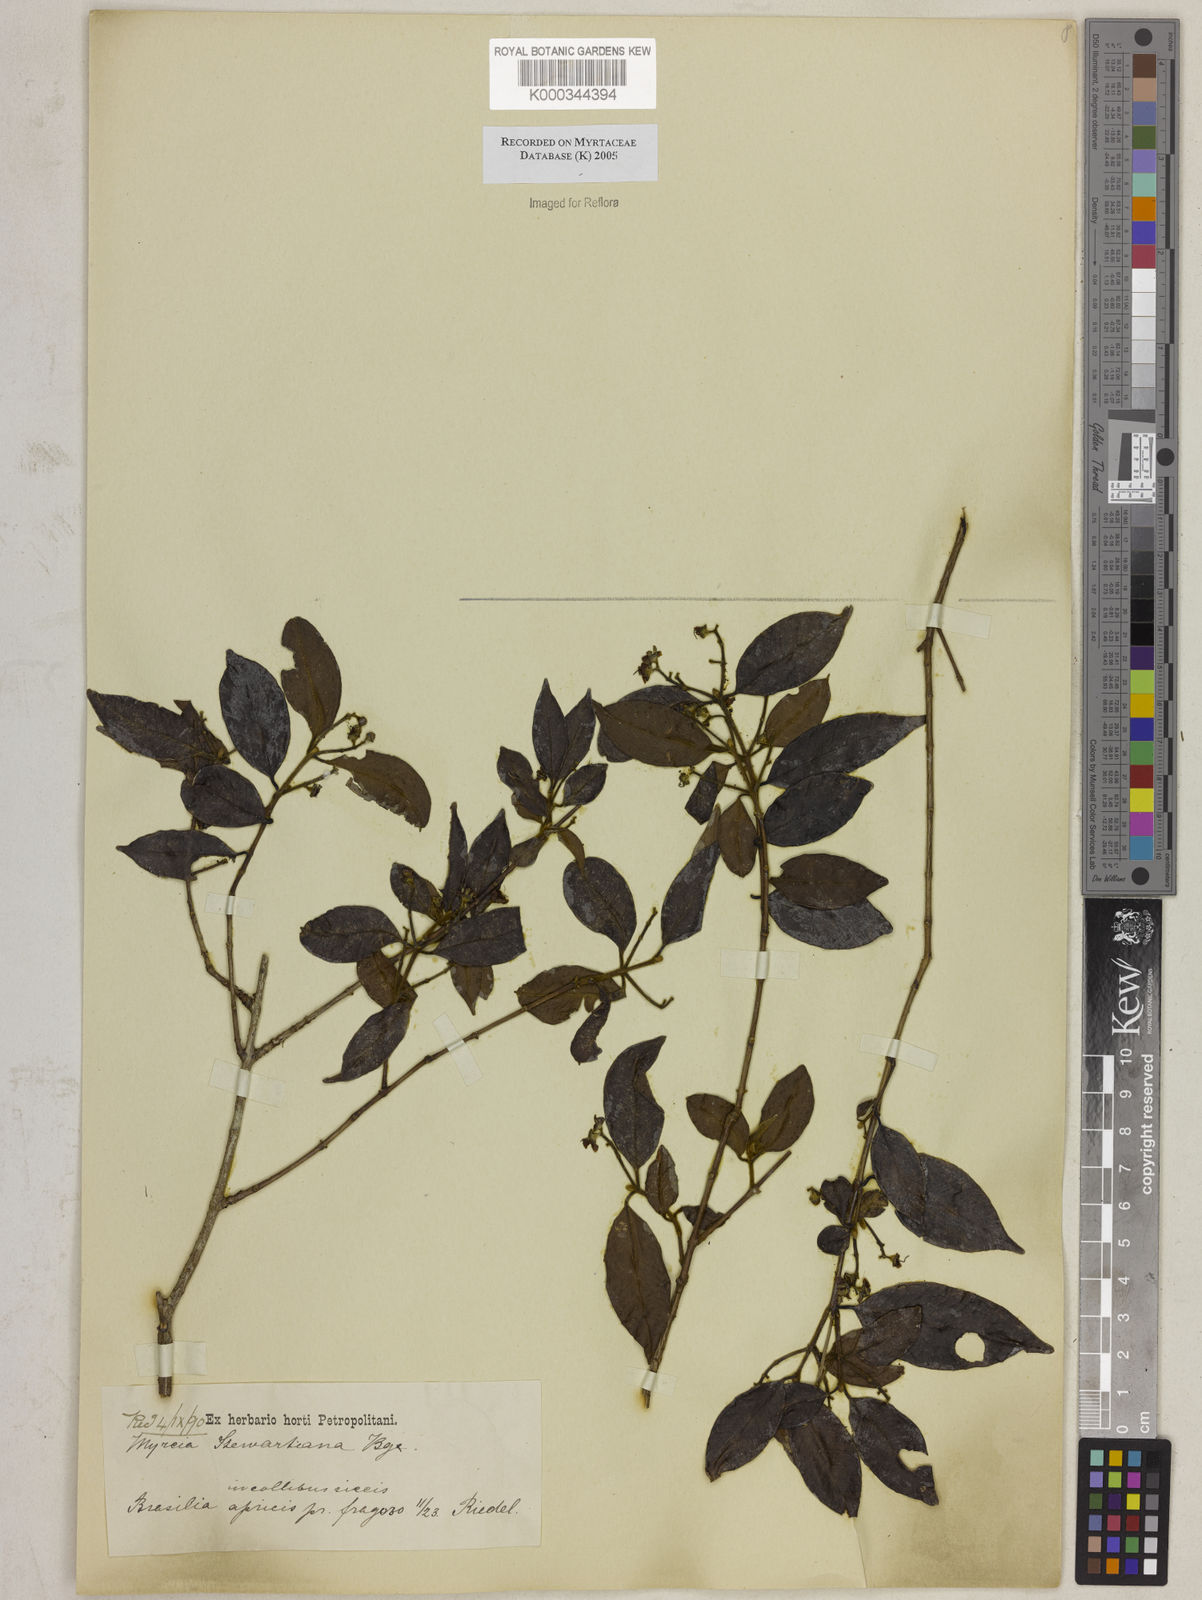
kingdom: Plantae
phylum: Tracheophyta
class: Magnoliopsida
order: Myrtales
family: Myrtaceae
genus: Myrcia
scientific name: Myrcia stewartiana
